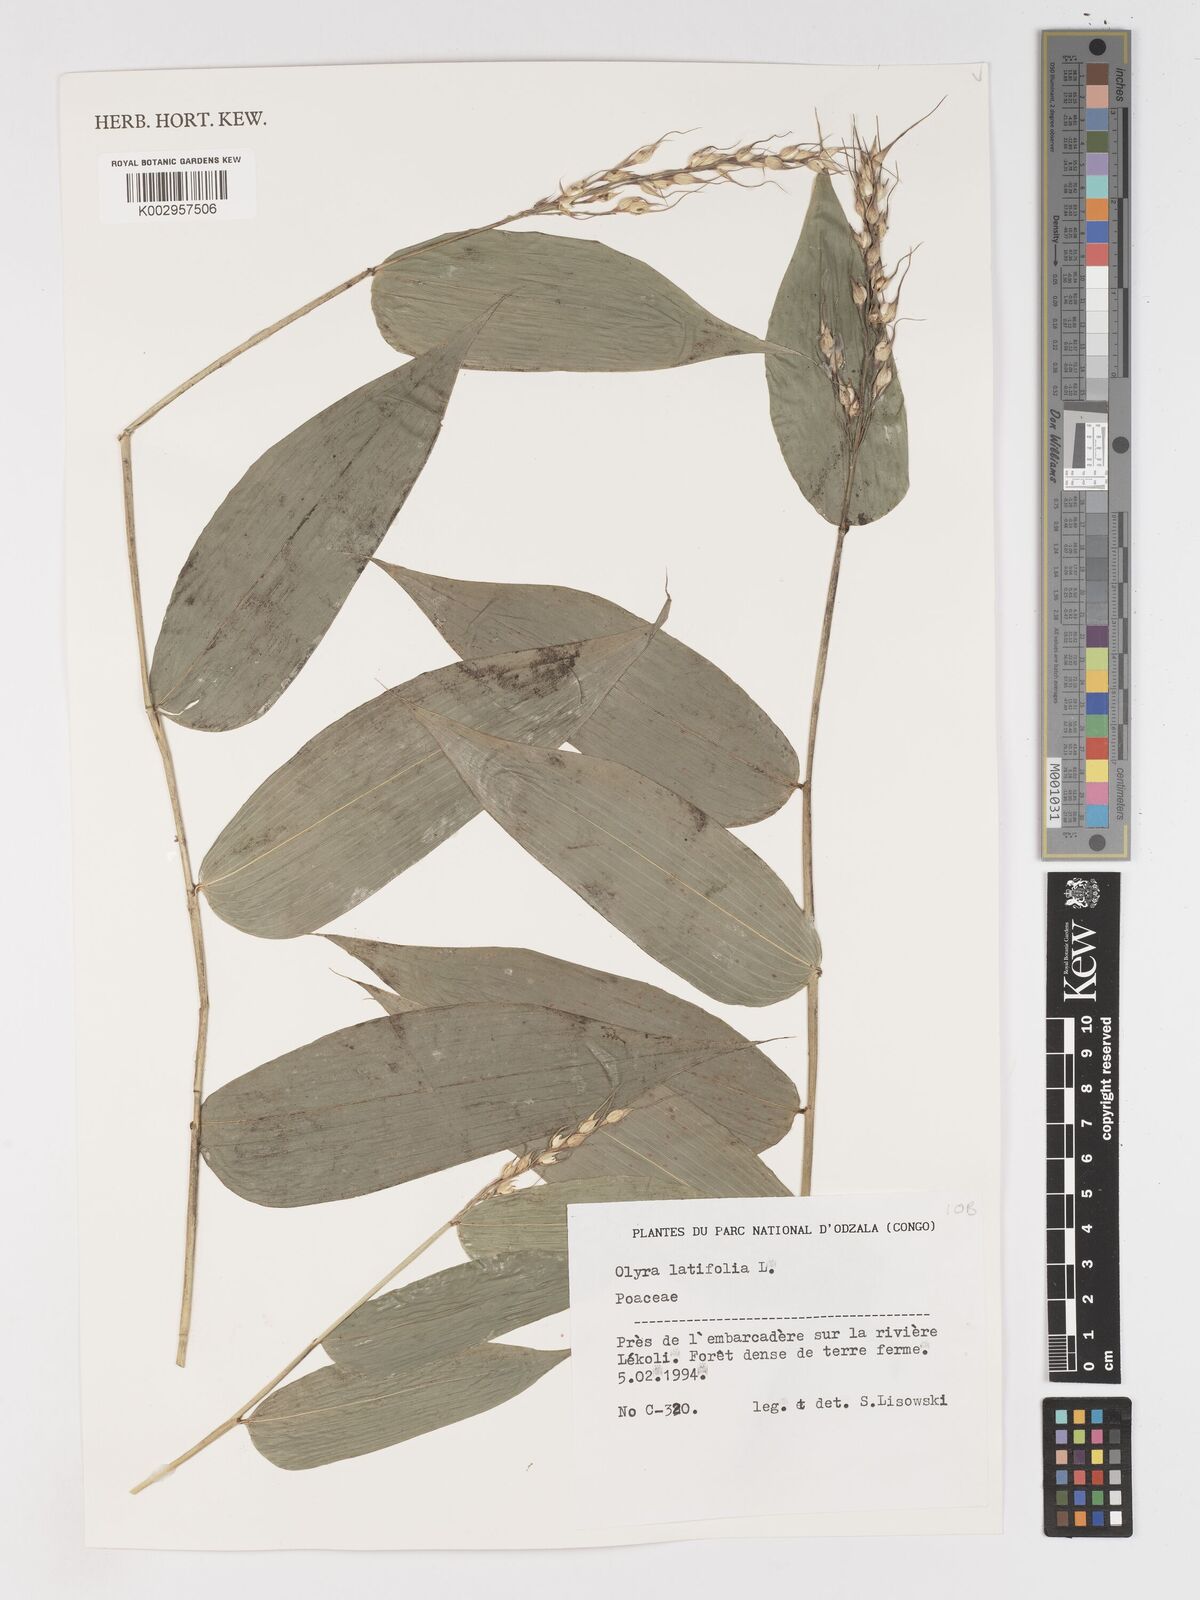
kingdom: Plantae
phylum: Tracheophyta
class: Liliopsida
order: Poales
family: Poaceae
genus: Olyra
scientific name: Olyra latifolia
